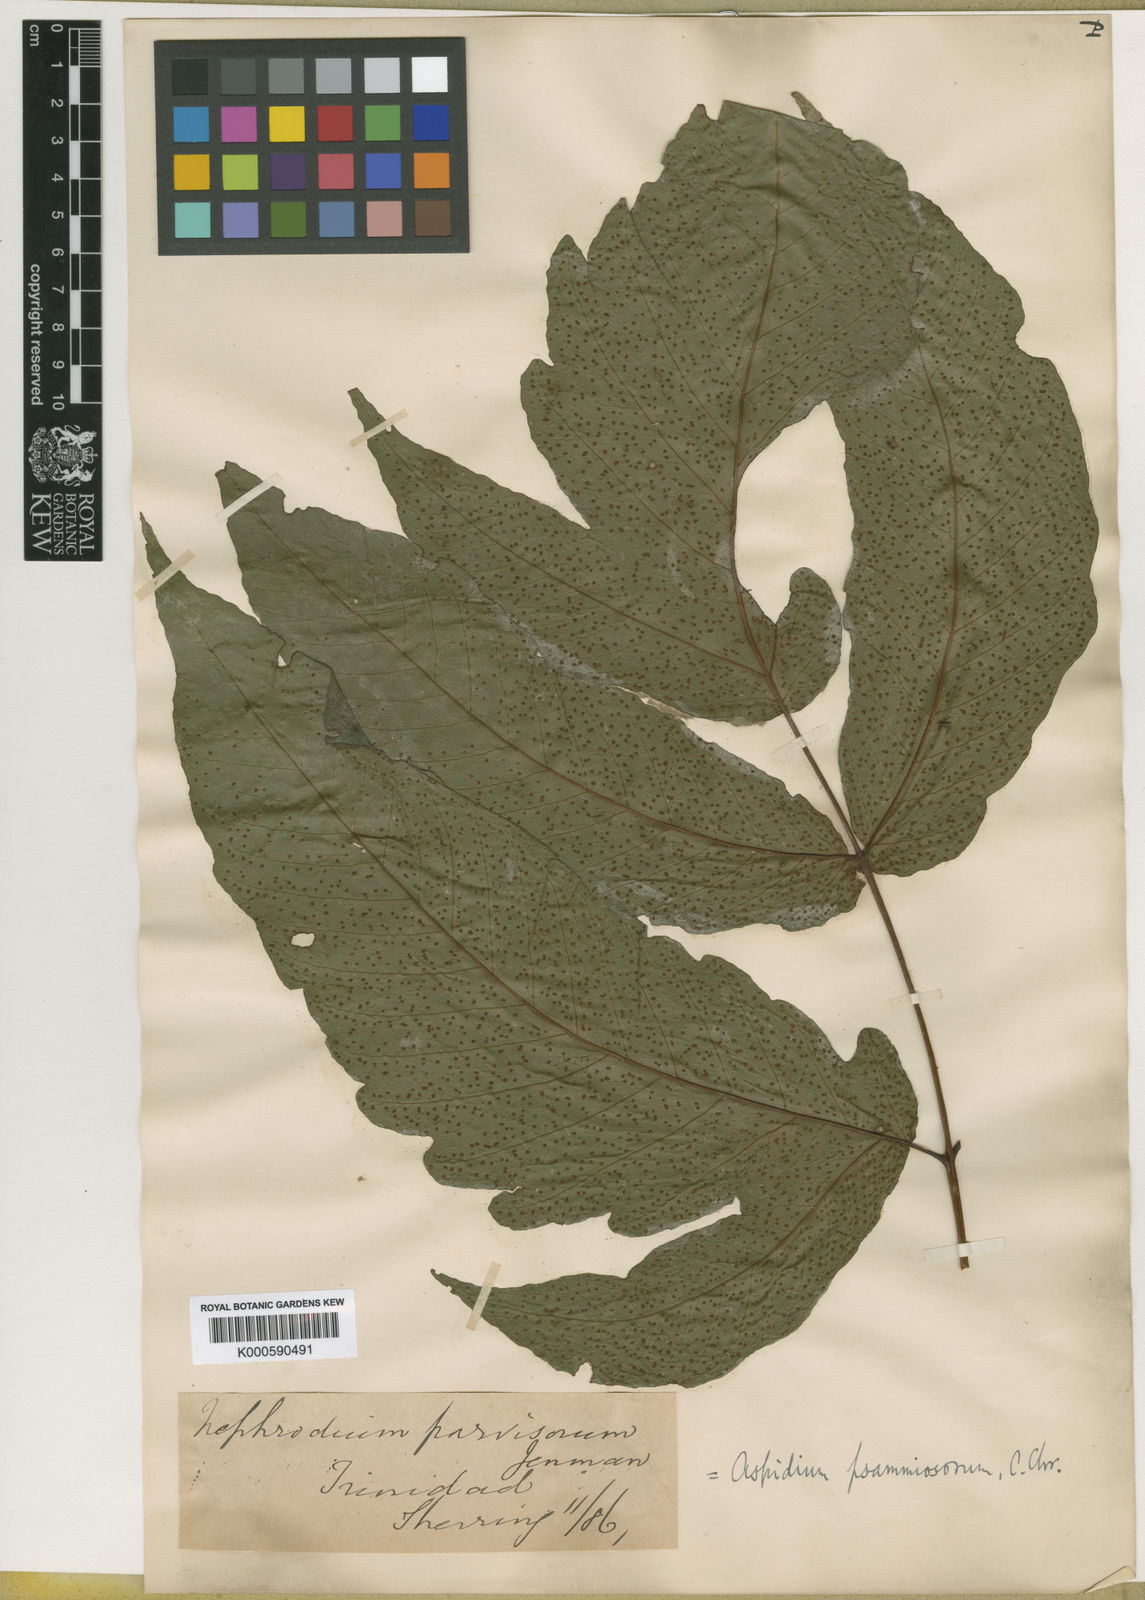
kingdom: Plantae
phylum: Tracheophyta
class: Polypodiopsida
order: Polypodiales
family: Tectariaceae
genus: Tectaria
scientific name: Tectaria trifoliata
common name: Threeleaf halberd fern
